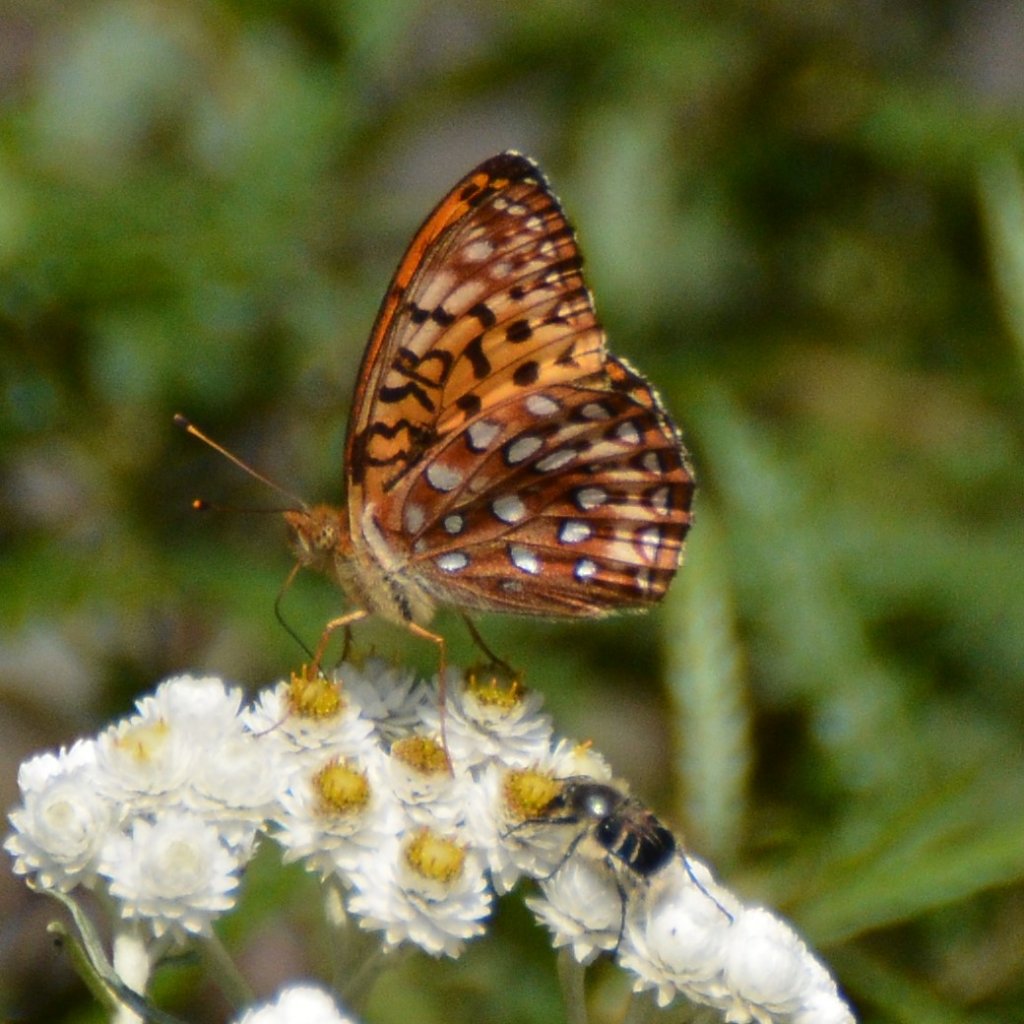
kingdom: Animalia
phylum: Arthropoda
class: Insecta
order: Lepidoptera
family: Nymphalidae
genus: Speyeria
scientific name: Speyeria aphrodite
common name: Aphrodite Fritillary
